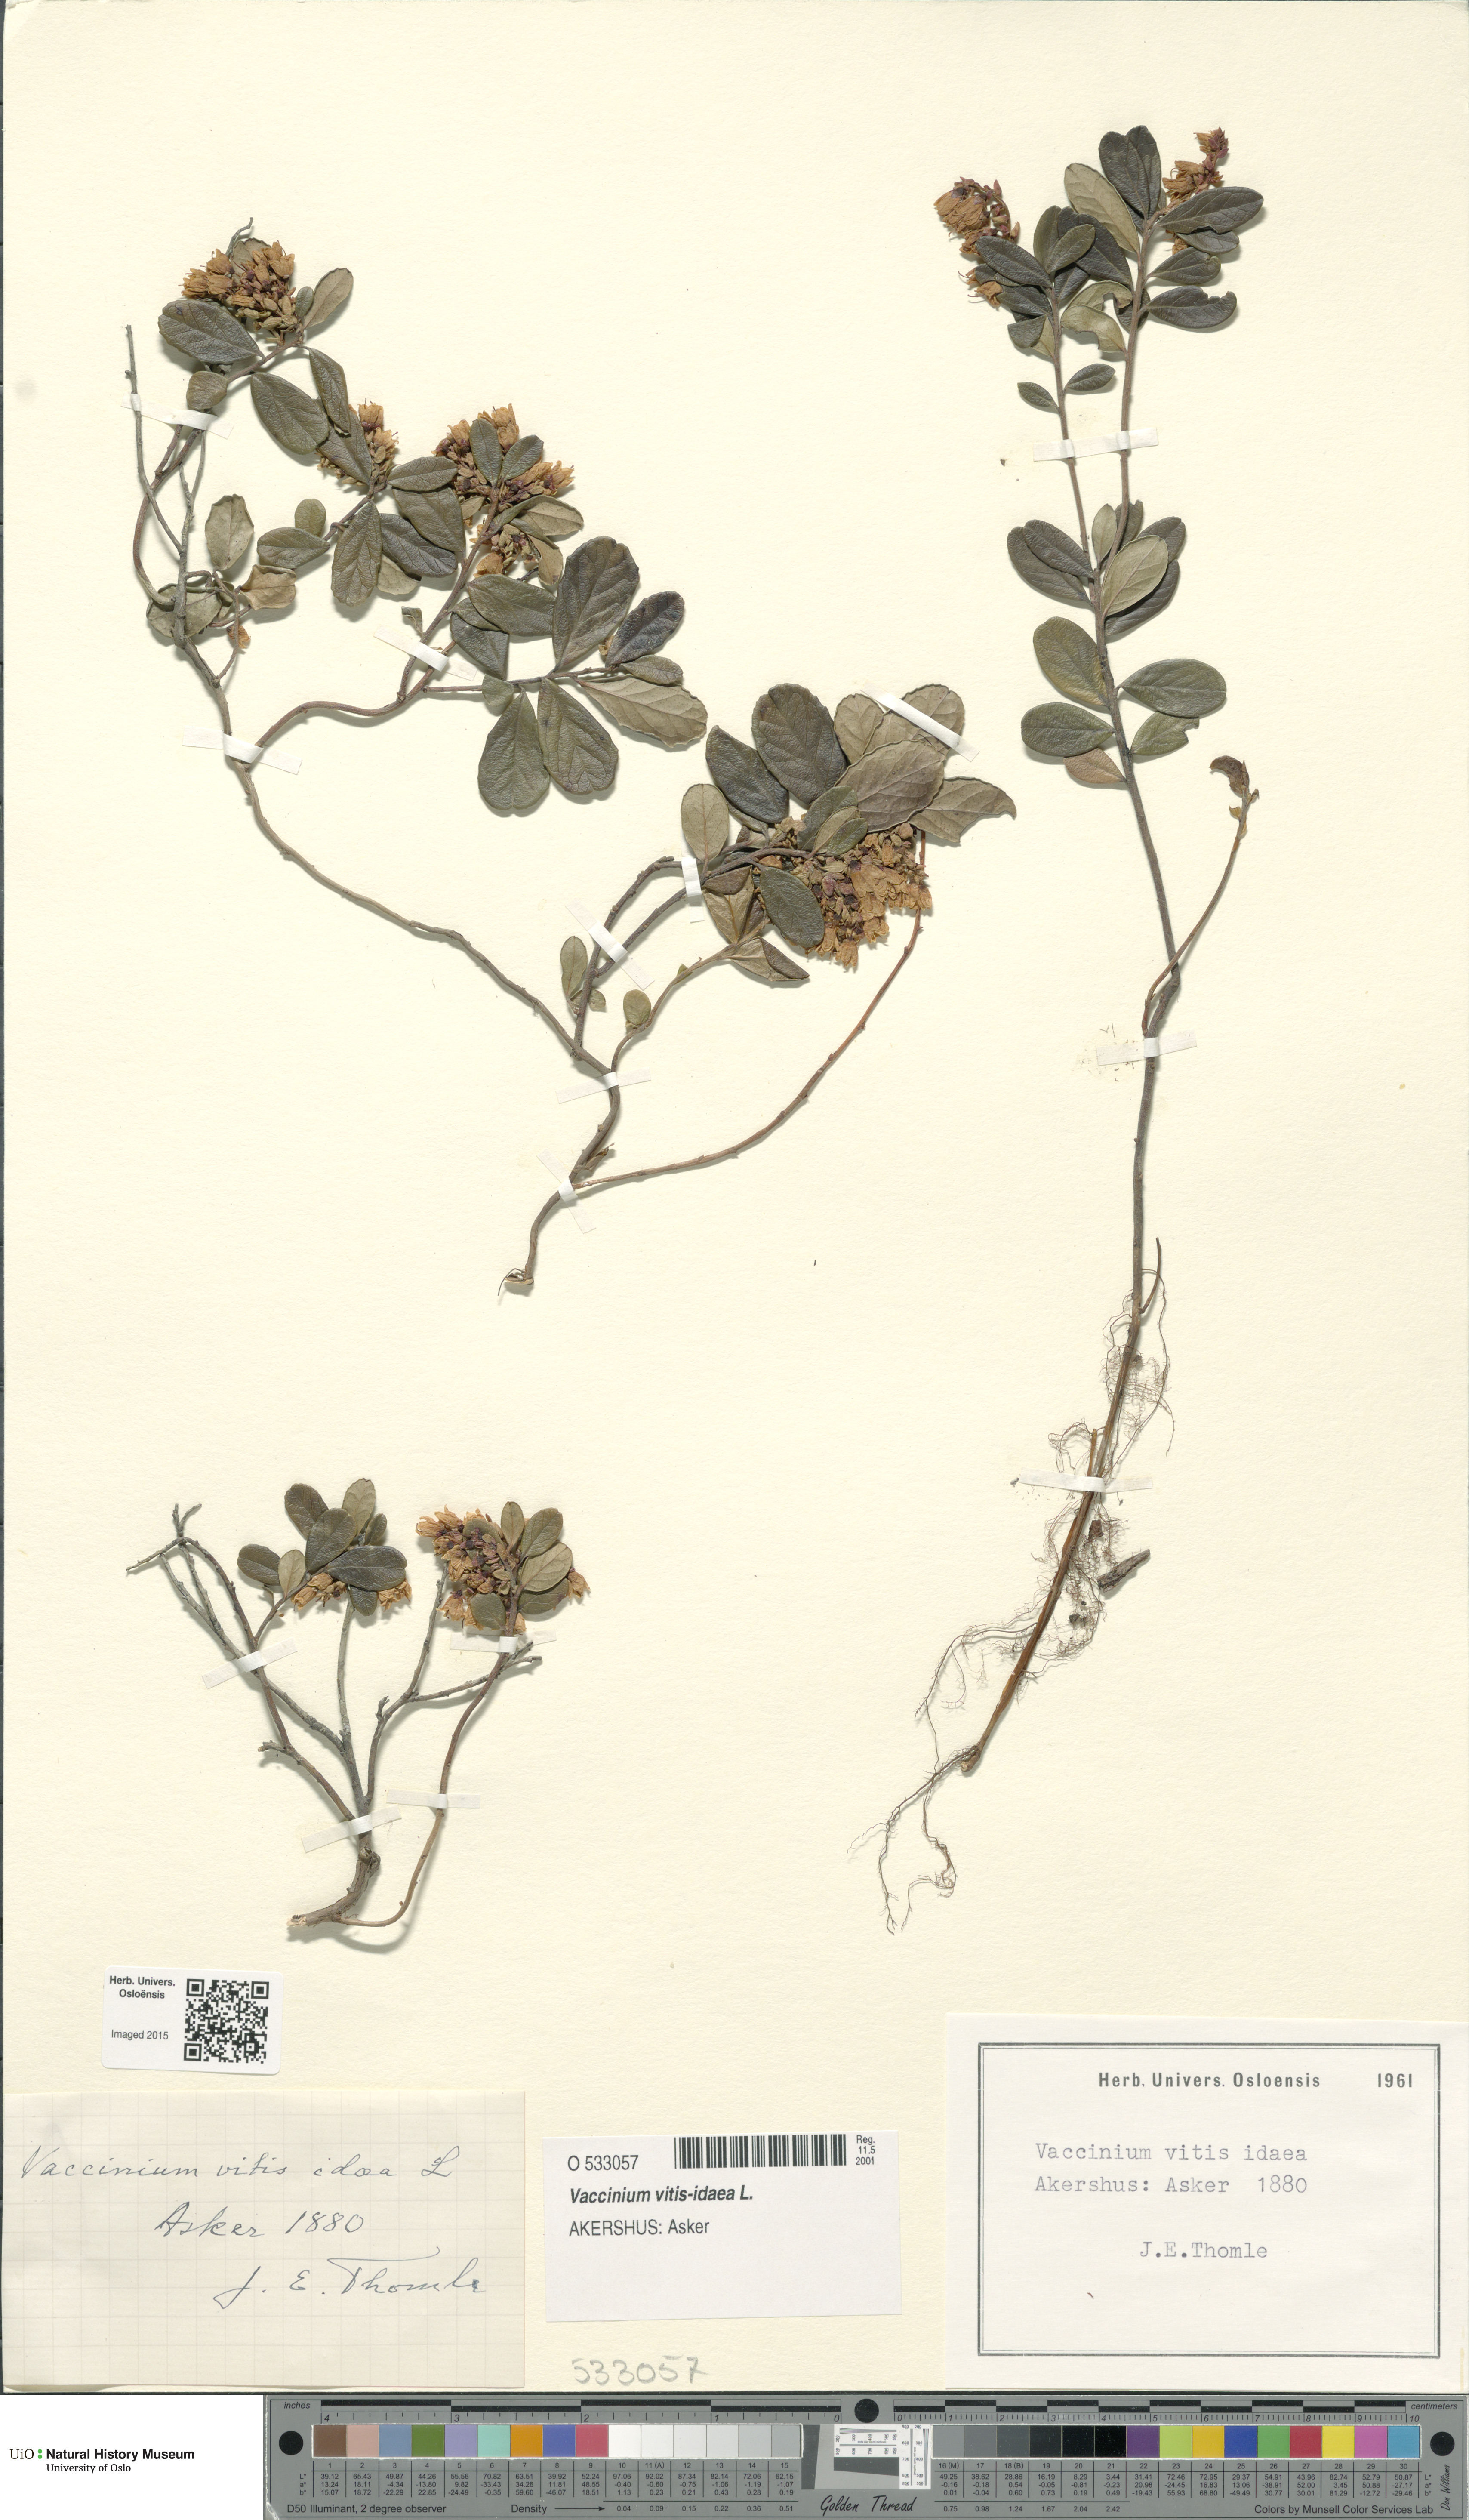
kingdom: Plantae
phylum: Tracheophyta
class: Magnoliopsida
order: Ericales
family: Ericaceae
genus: Vaccinium
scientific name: Vaccinium vitis-idaea
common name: Cowberry
